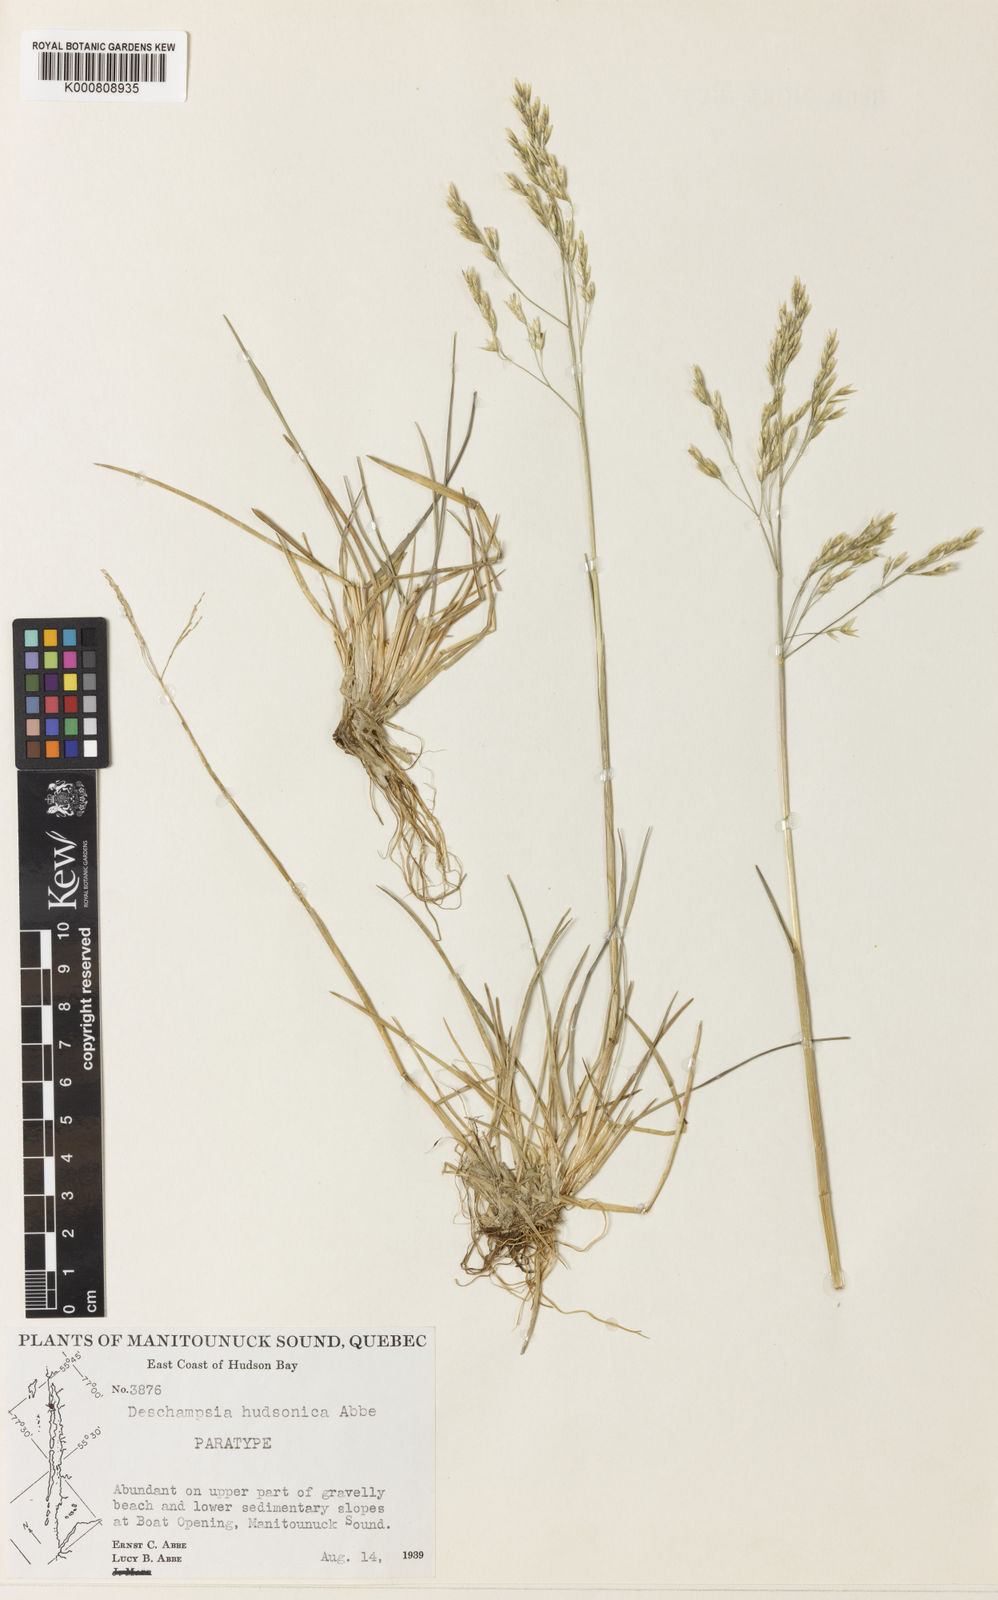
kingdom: Plantae
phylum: Tracheophyta
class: Liliopsida
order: Poales
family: Poaceae
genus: Deschampsia
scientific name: Deschampsia
